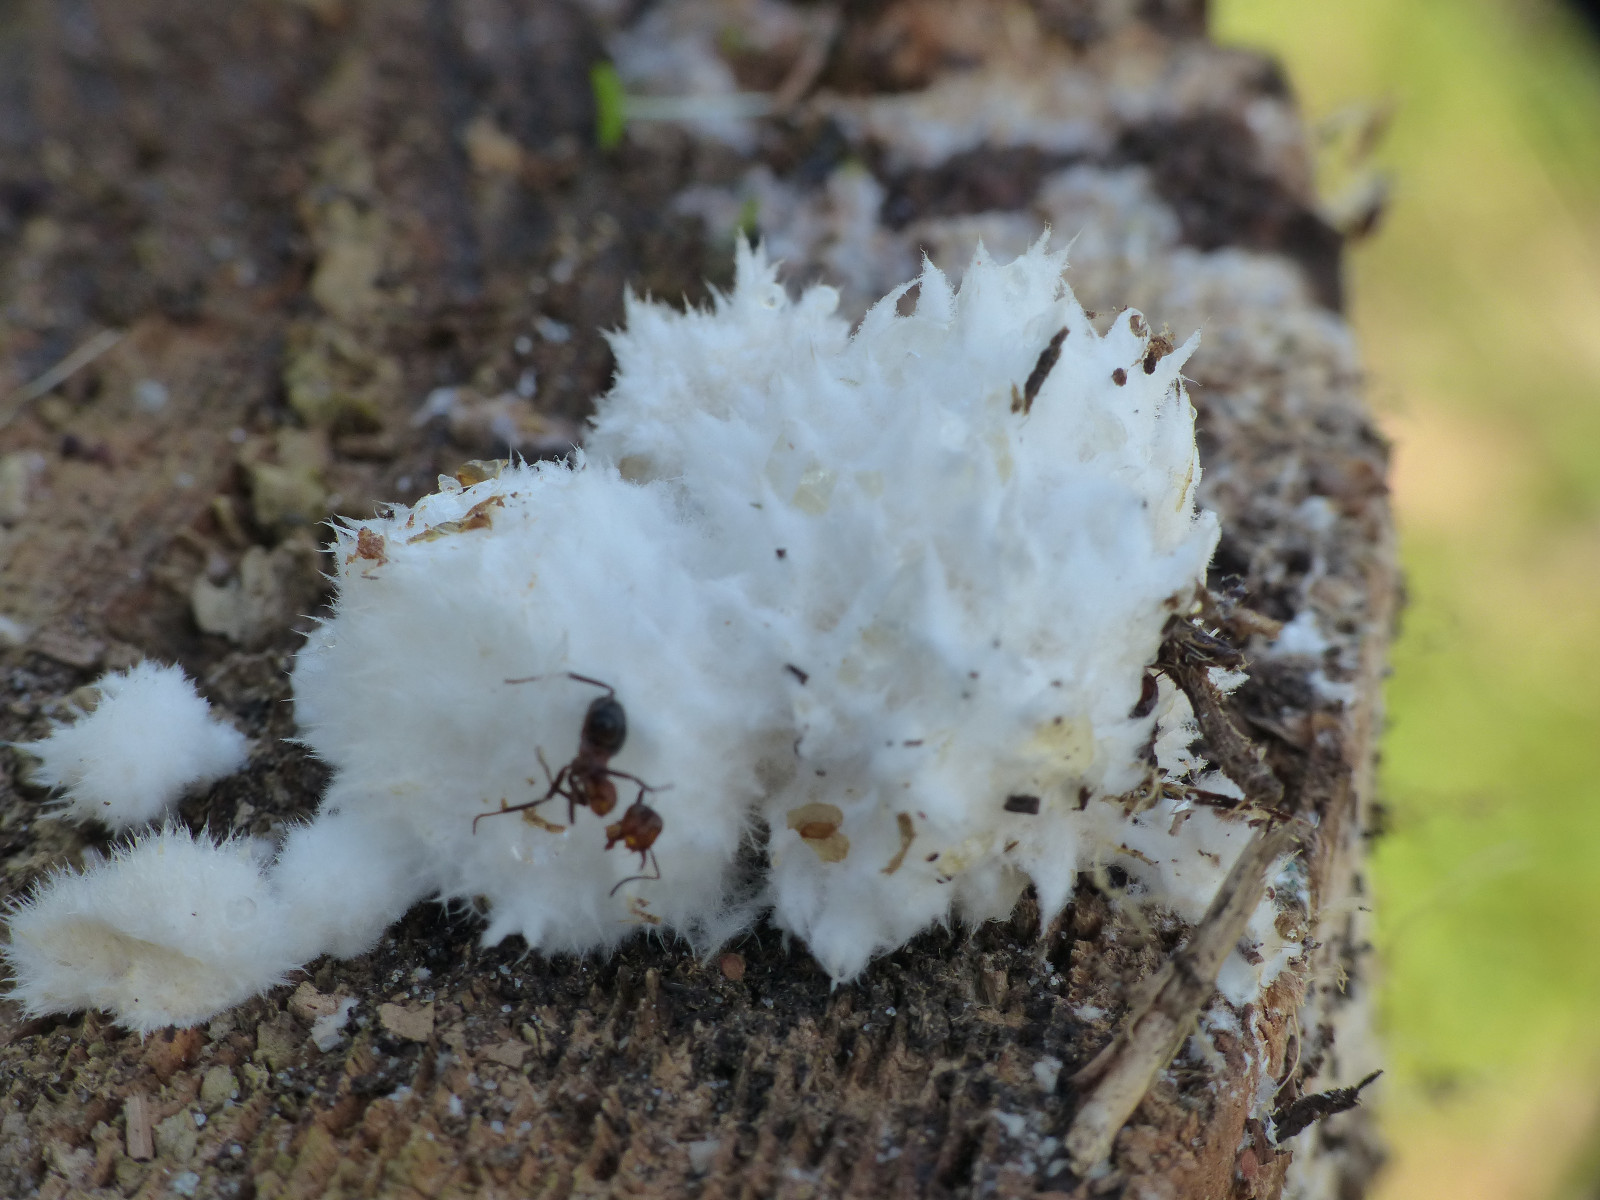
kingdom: Fungi
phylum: Basidiomycota
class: Agaricomycetes
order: Polyporales
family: Dacryobolaceae
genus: Postia
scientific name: Postia ptychogaster
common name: støvende kødporesvamp
